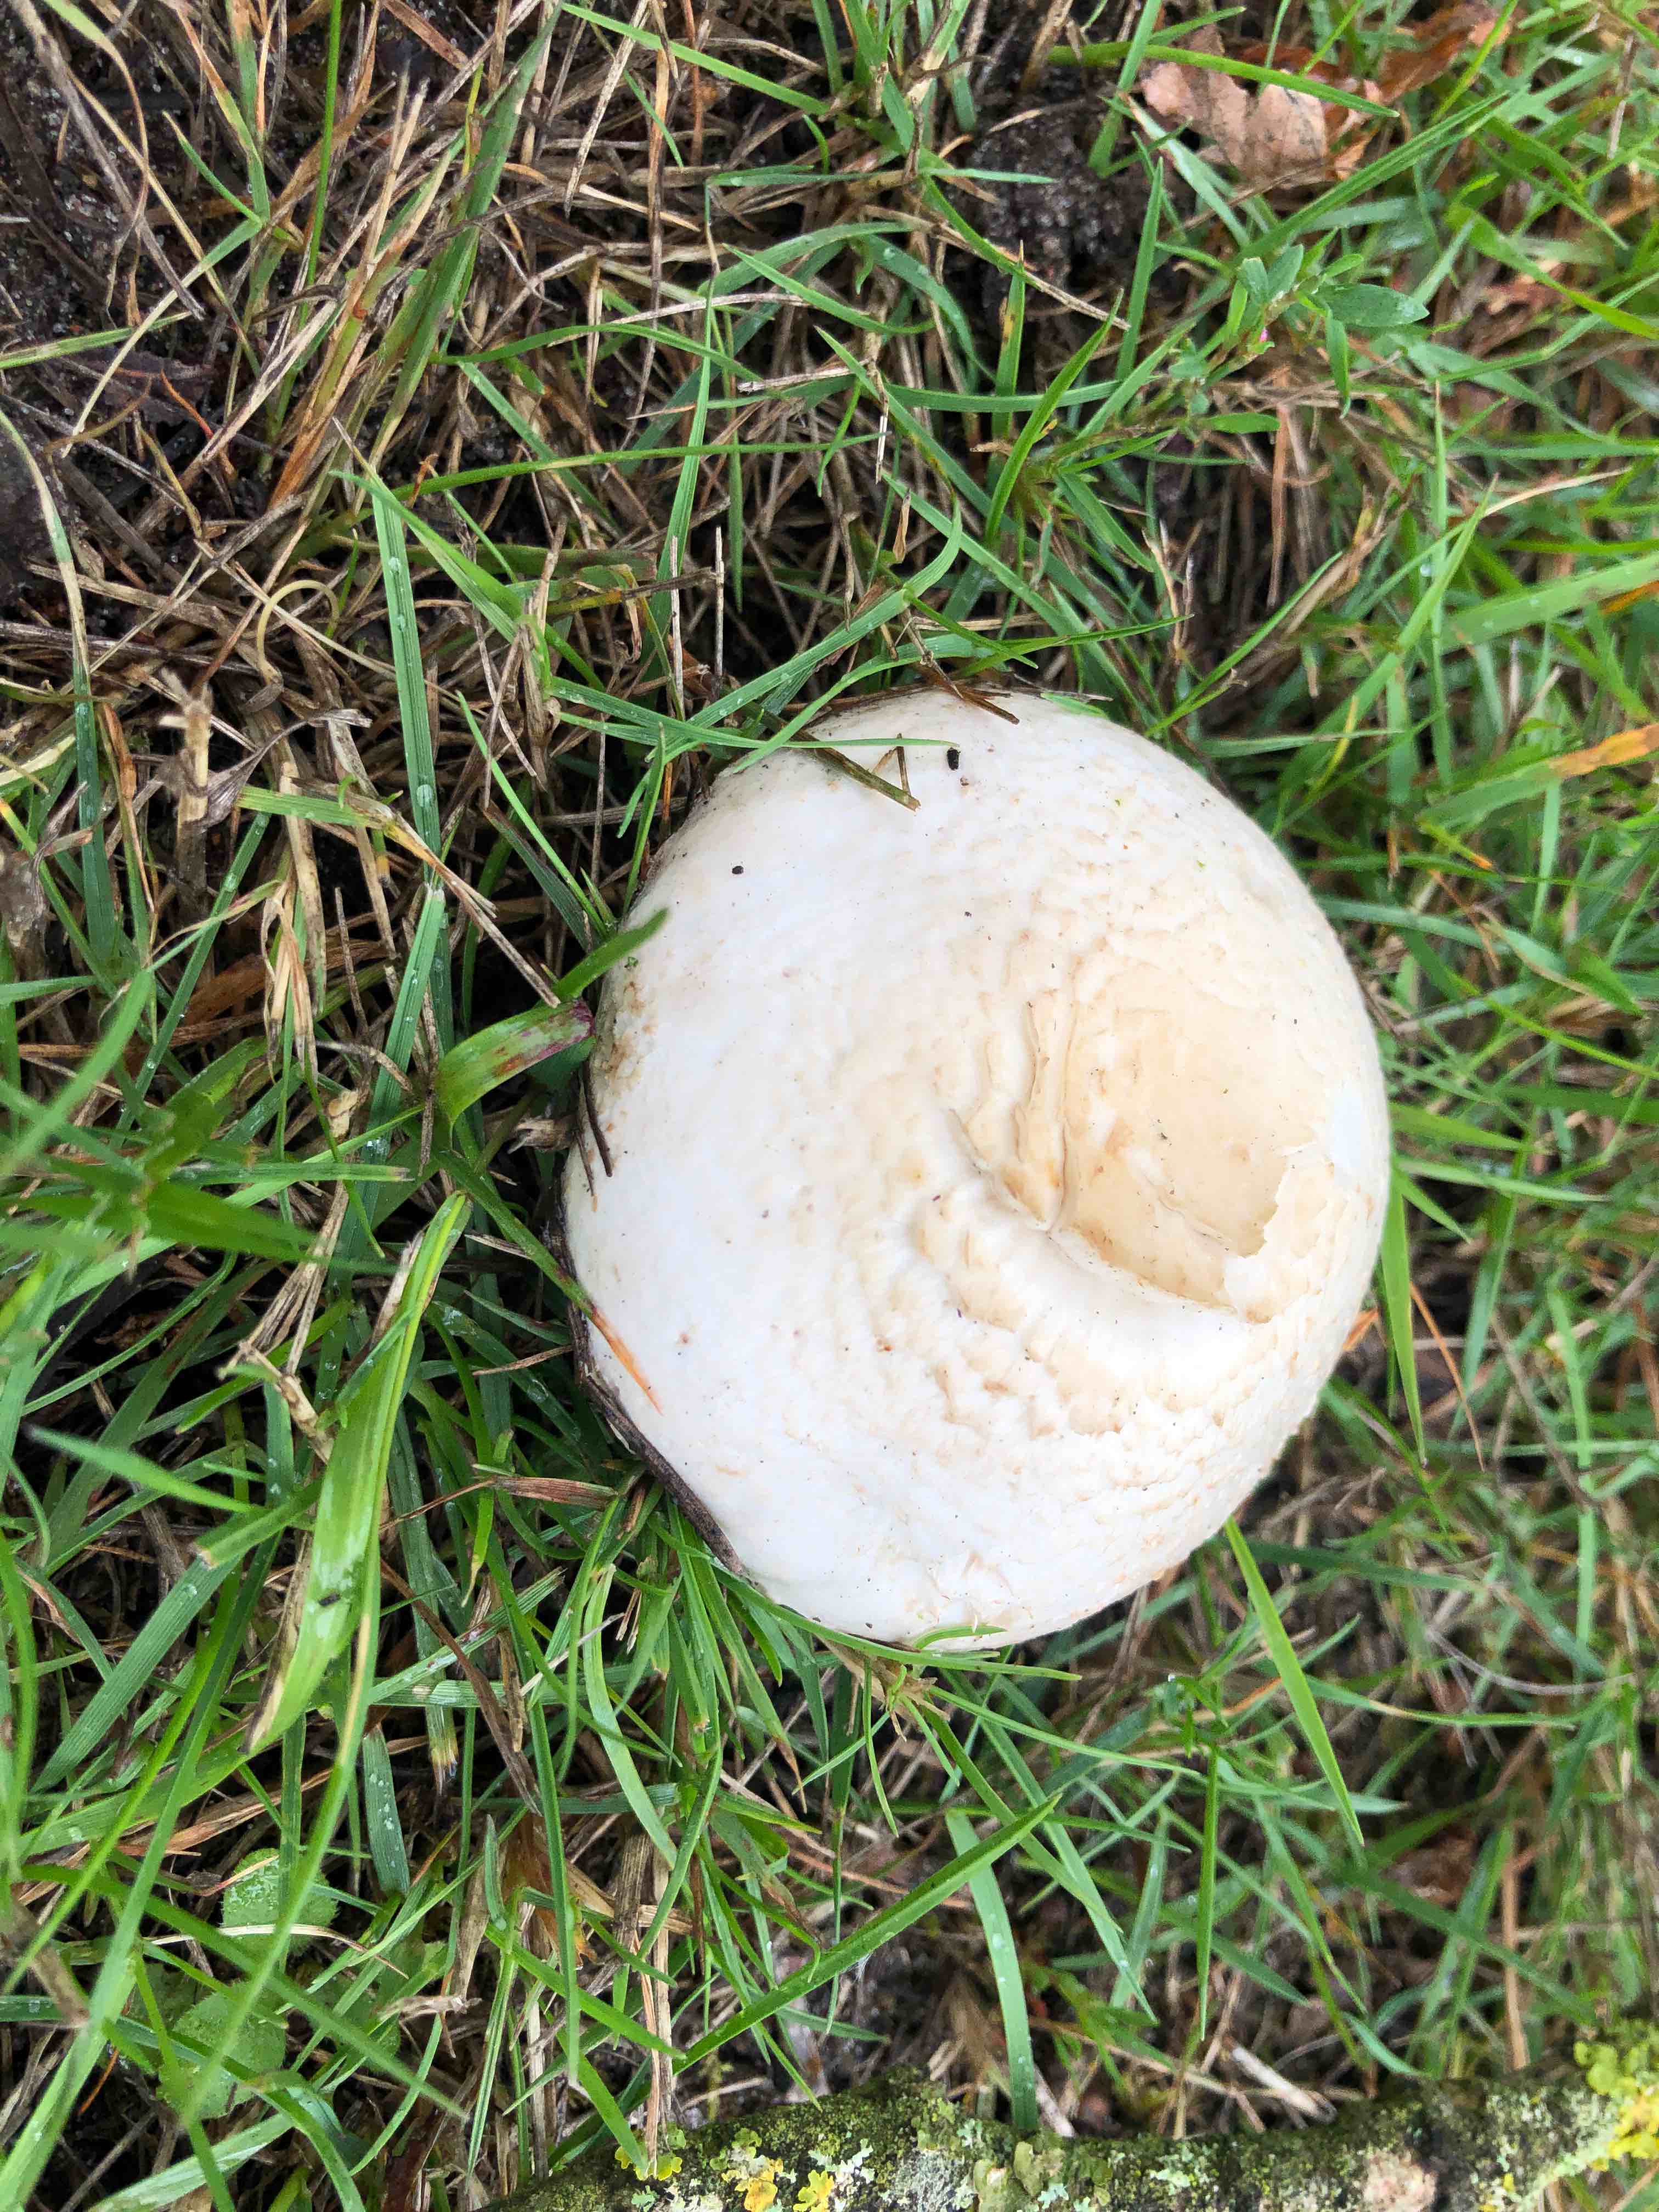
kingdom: Fungi
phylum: Basidiomycota
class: Agaricomycetes
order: Agaricales
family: Agaricaceae
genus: Agaricus
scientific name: Agaricus
